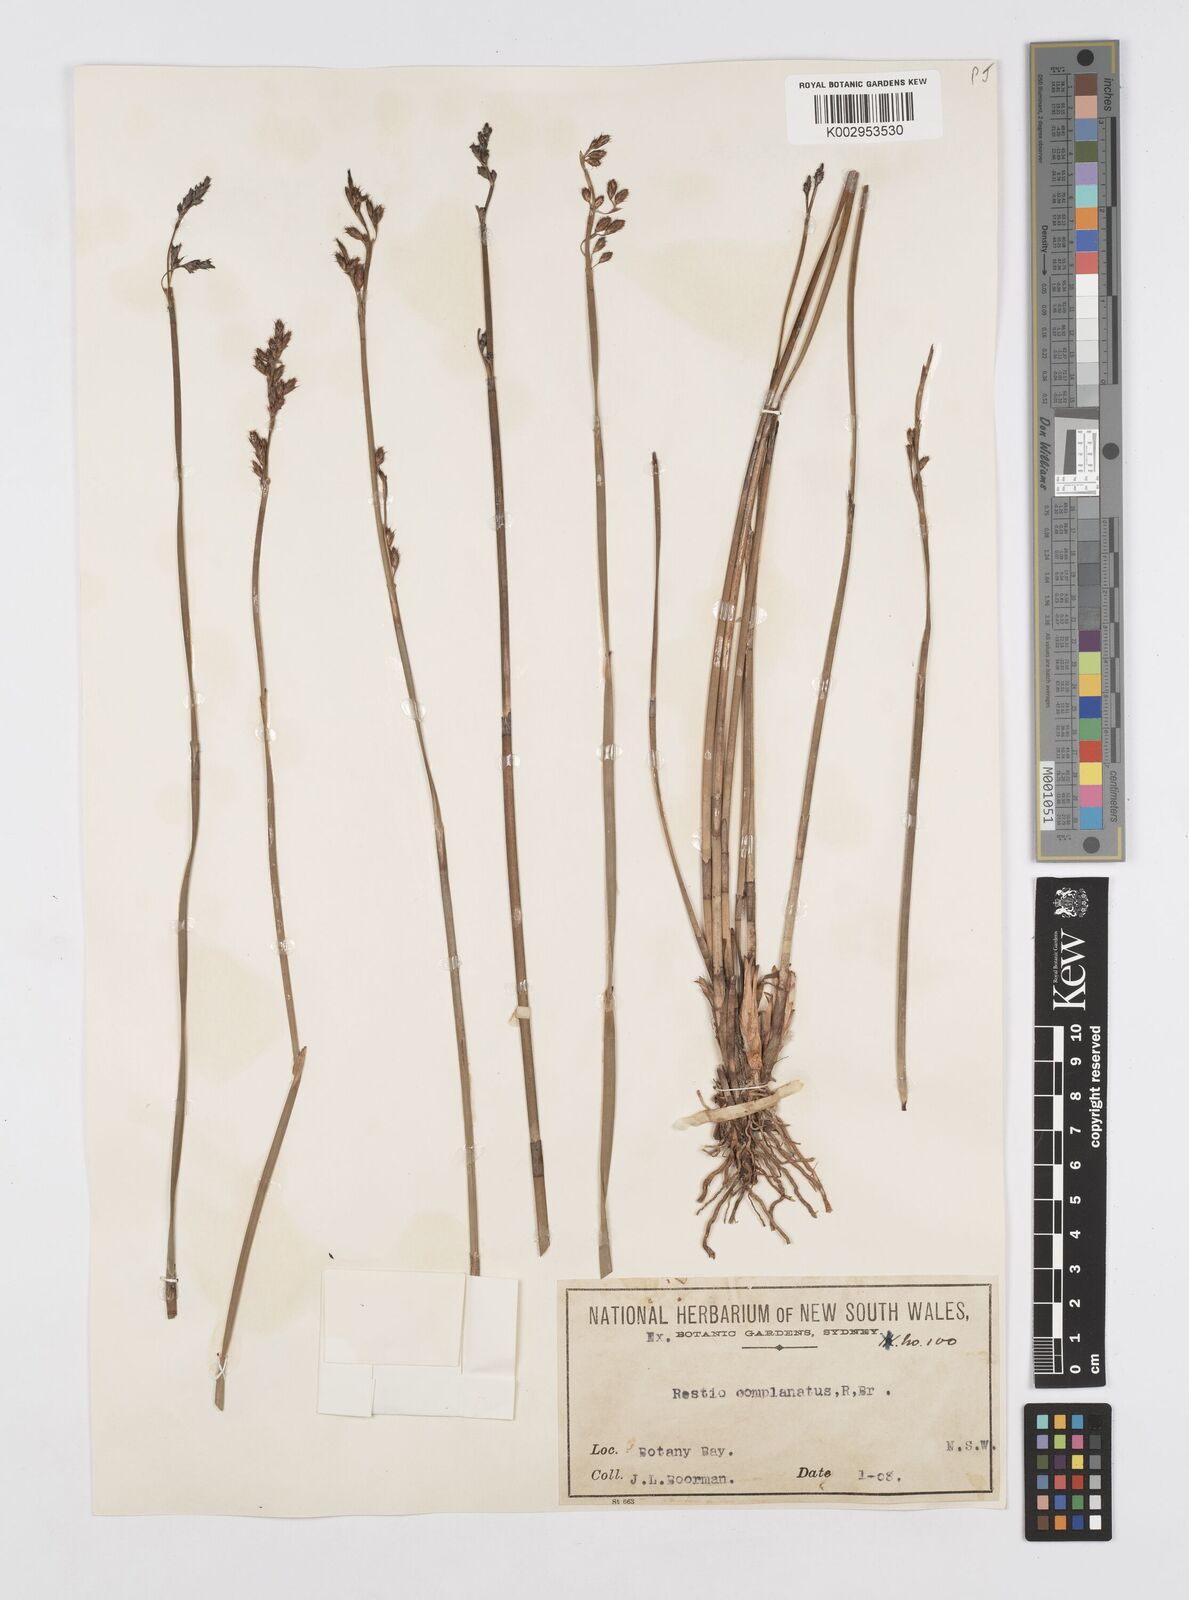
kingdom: Plantae
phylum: Tracheophyta
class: Liliopsida
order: Poales
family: Restionaceae
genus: Eurychorda
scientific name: Eurychorda complanata
